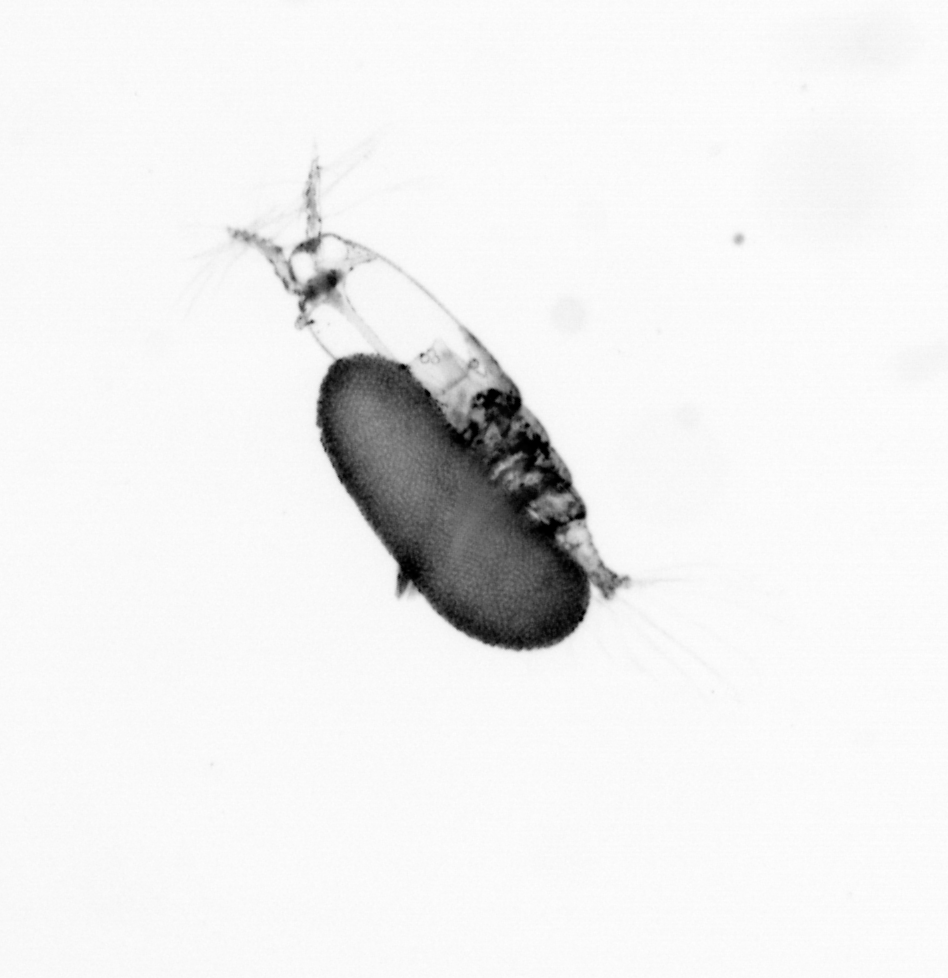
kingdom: Animalia
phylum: Arthropoda
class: Copepoda
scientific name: Copepoda
